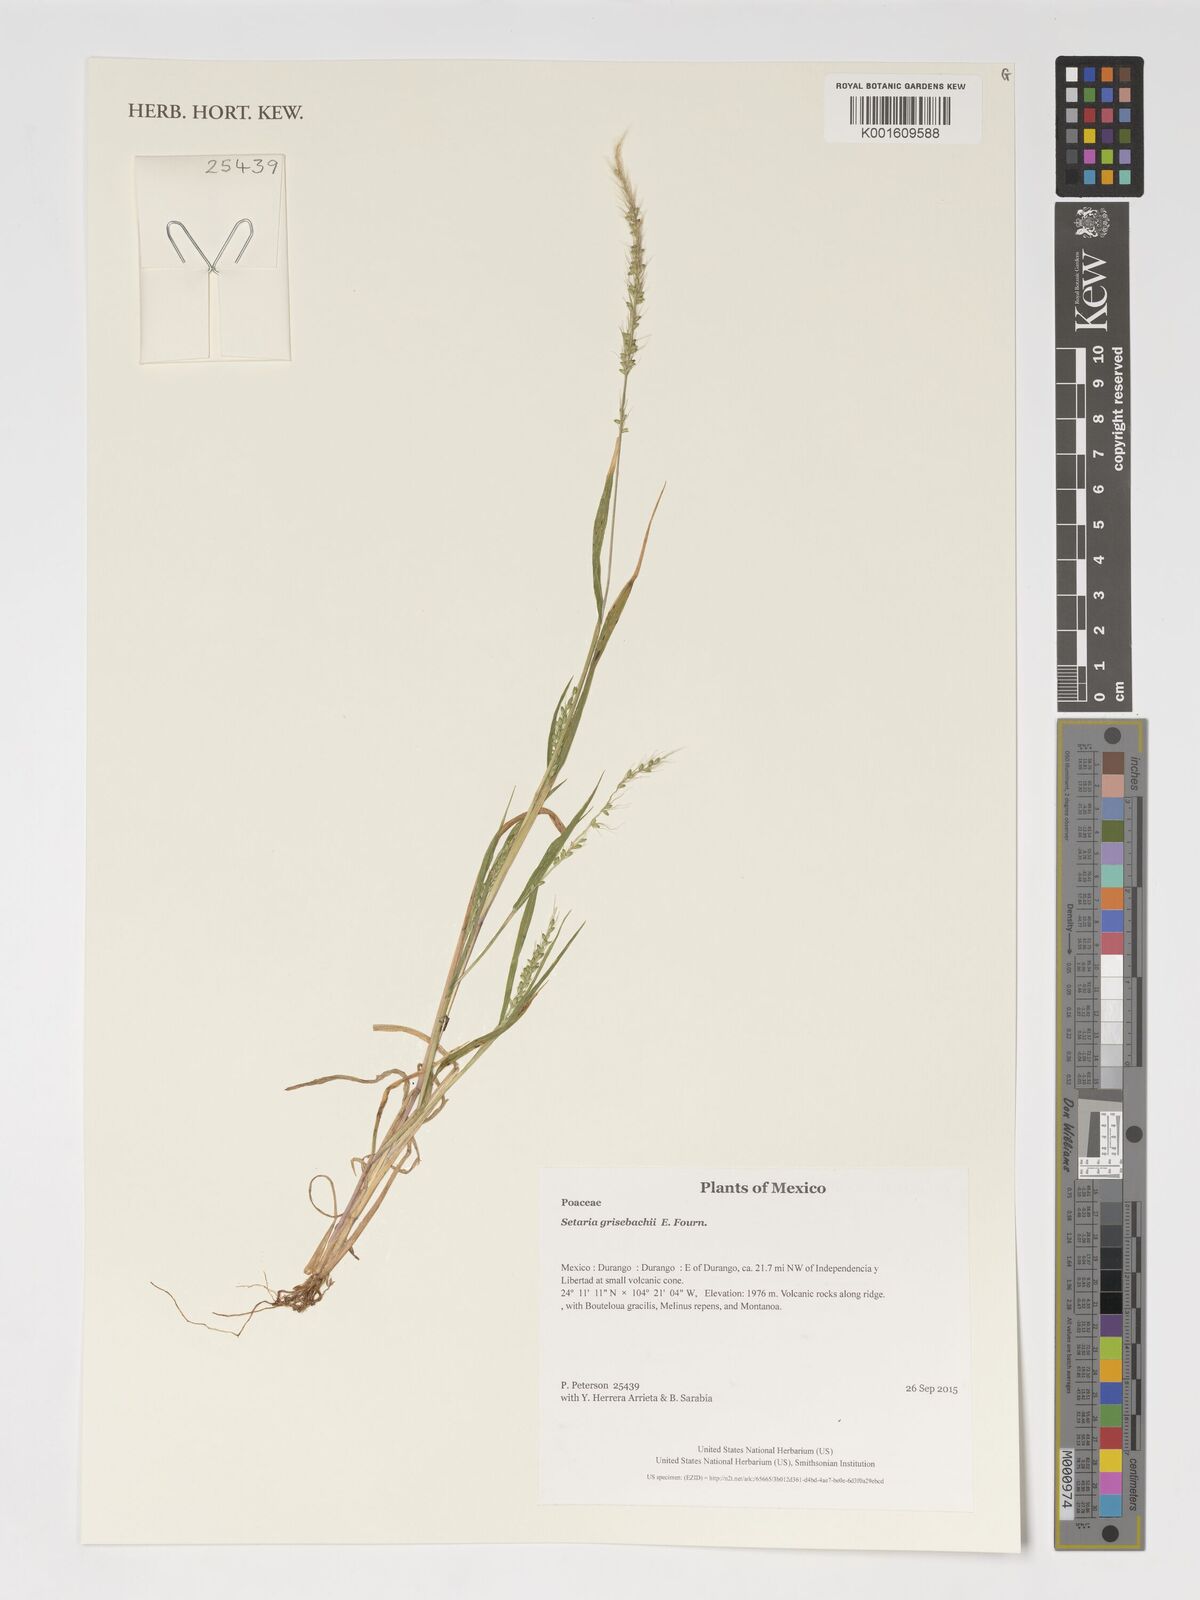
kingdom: Plantae
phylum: Tracheophyta
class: Liliopsida
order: Poales
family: Poaceae
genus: Setaria
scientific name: Setaria grisebachii
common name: Grisebach's bristle grass
